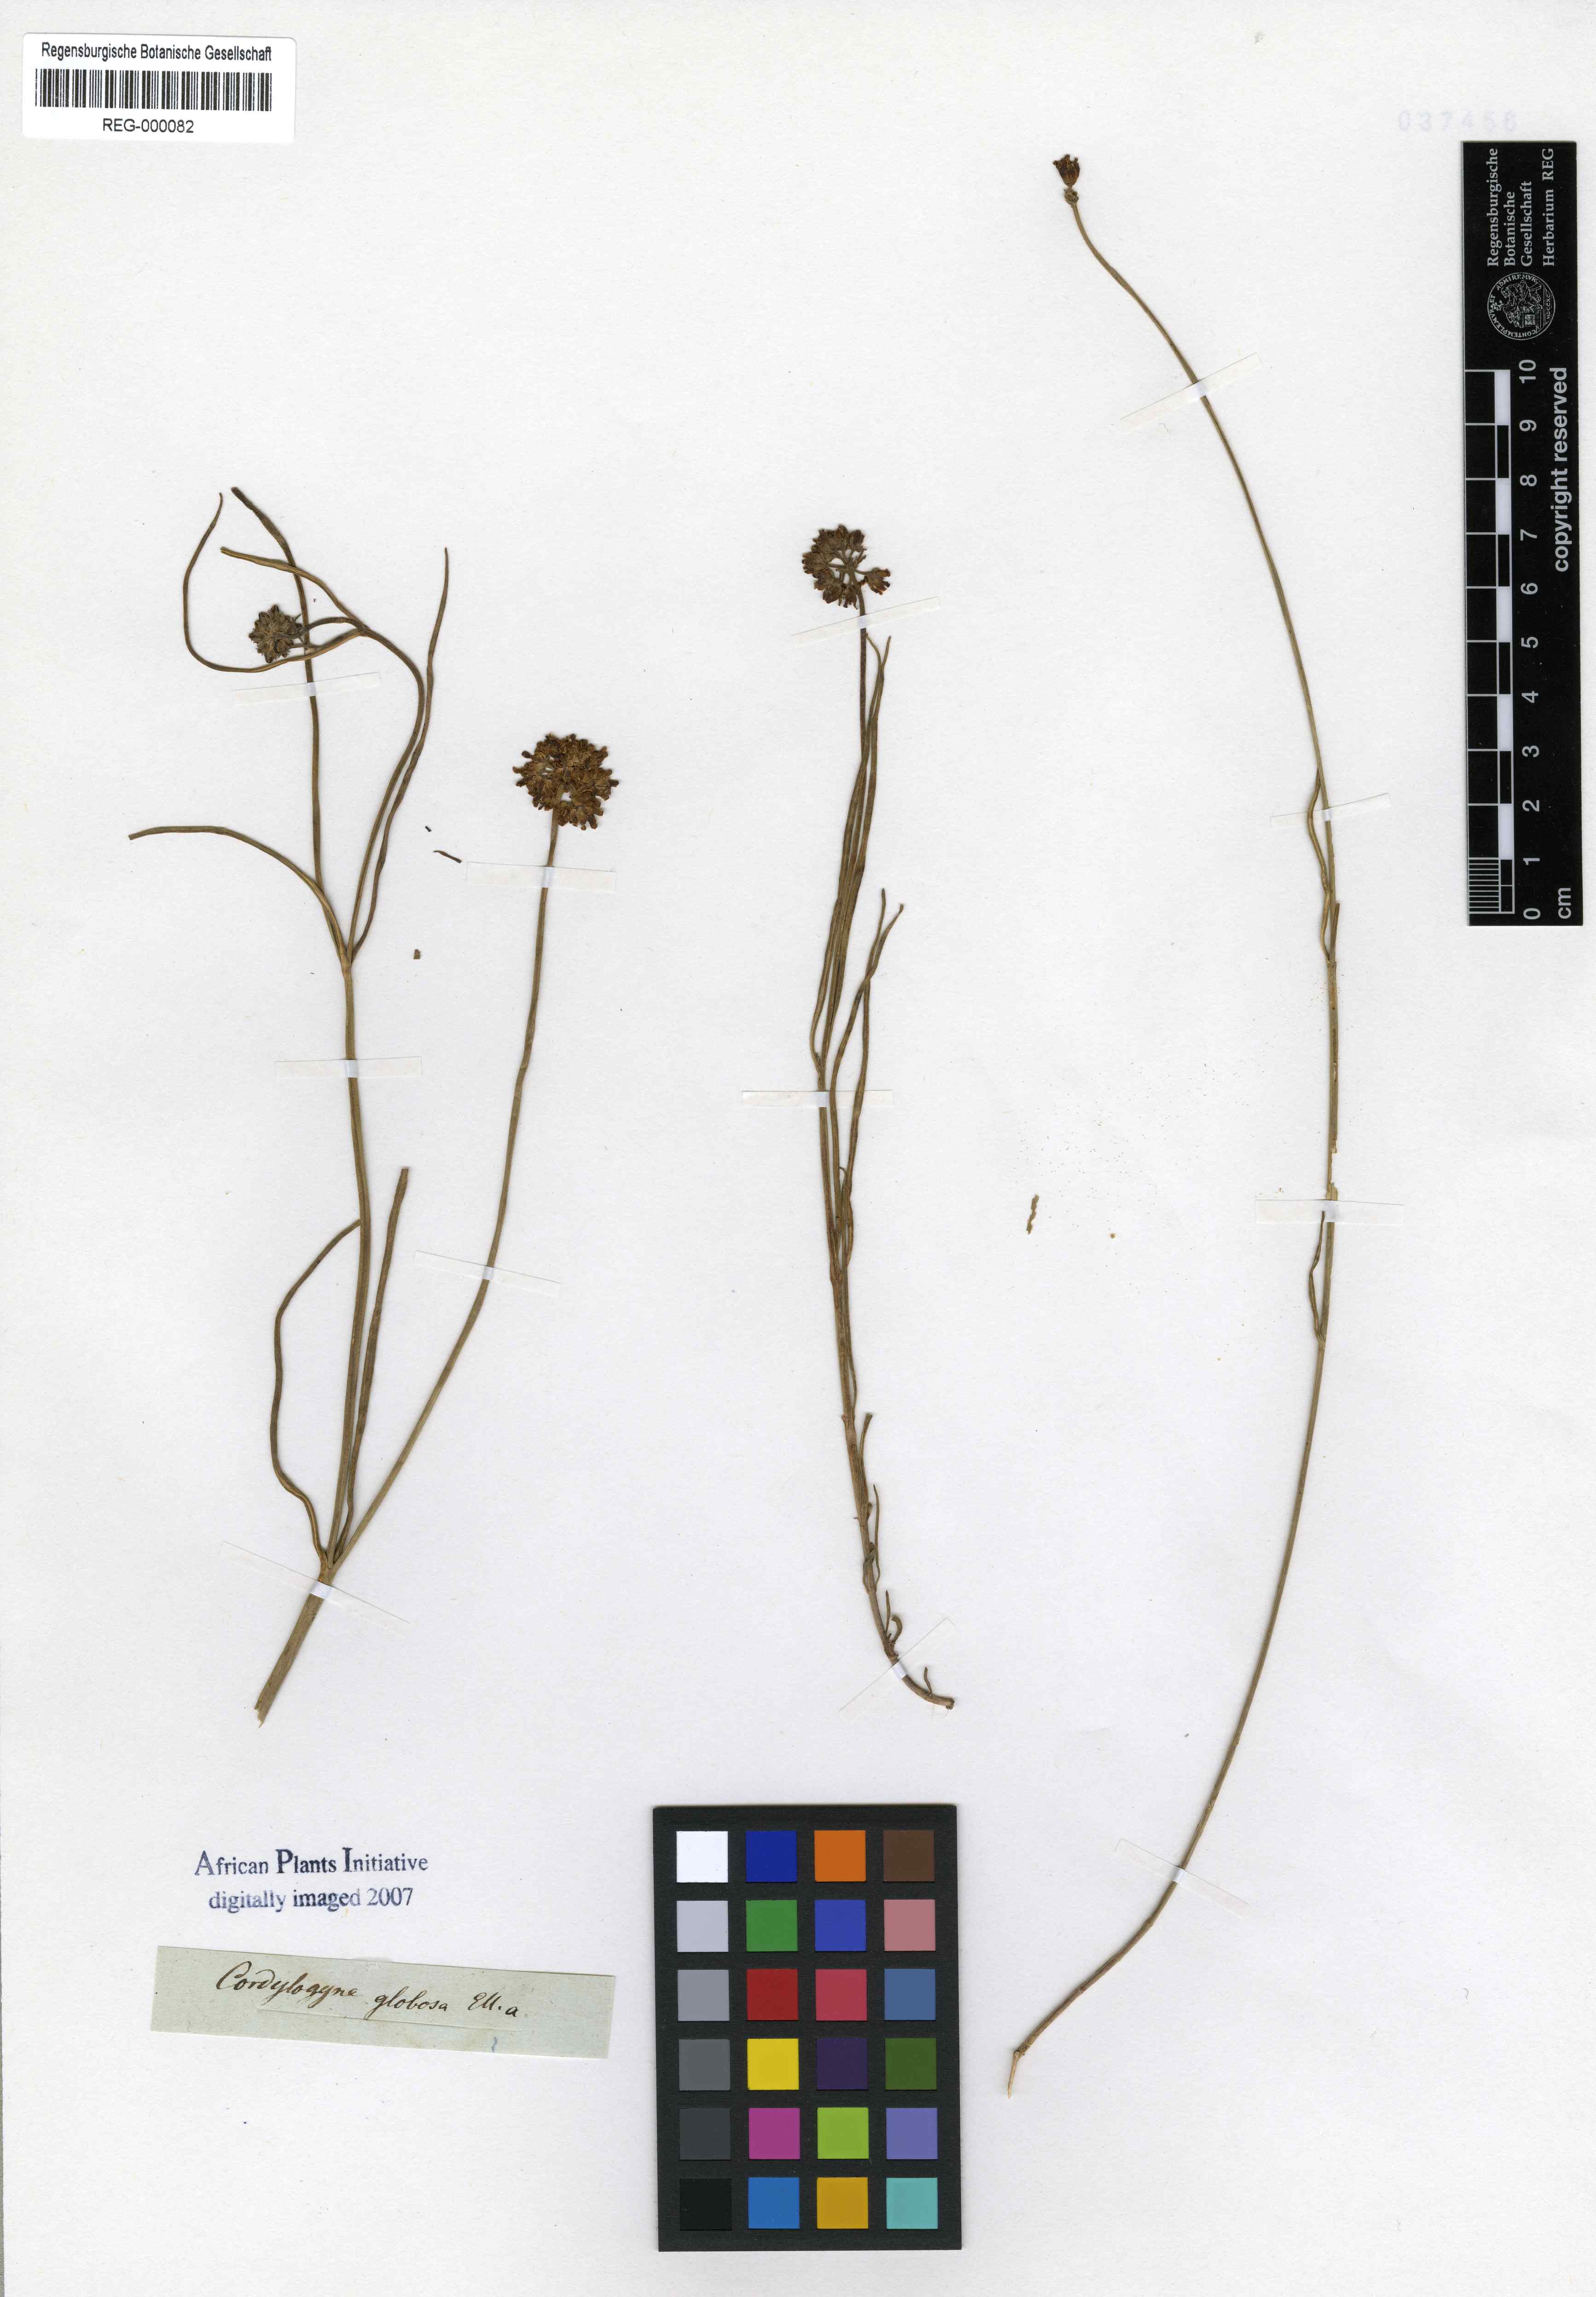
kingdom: Plantae
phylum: Tracheophyta
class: Magnoliopsida
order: Gentianales
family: Apocynaceae
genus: Cordylogyne
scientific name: Cordylogyne globosa
